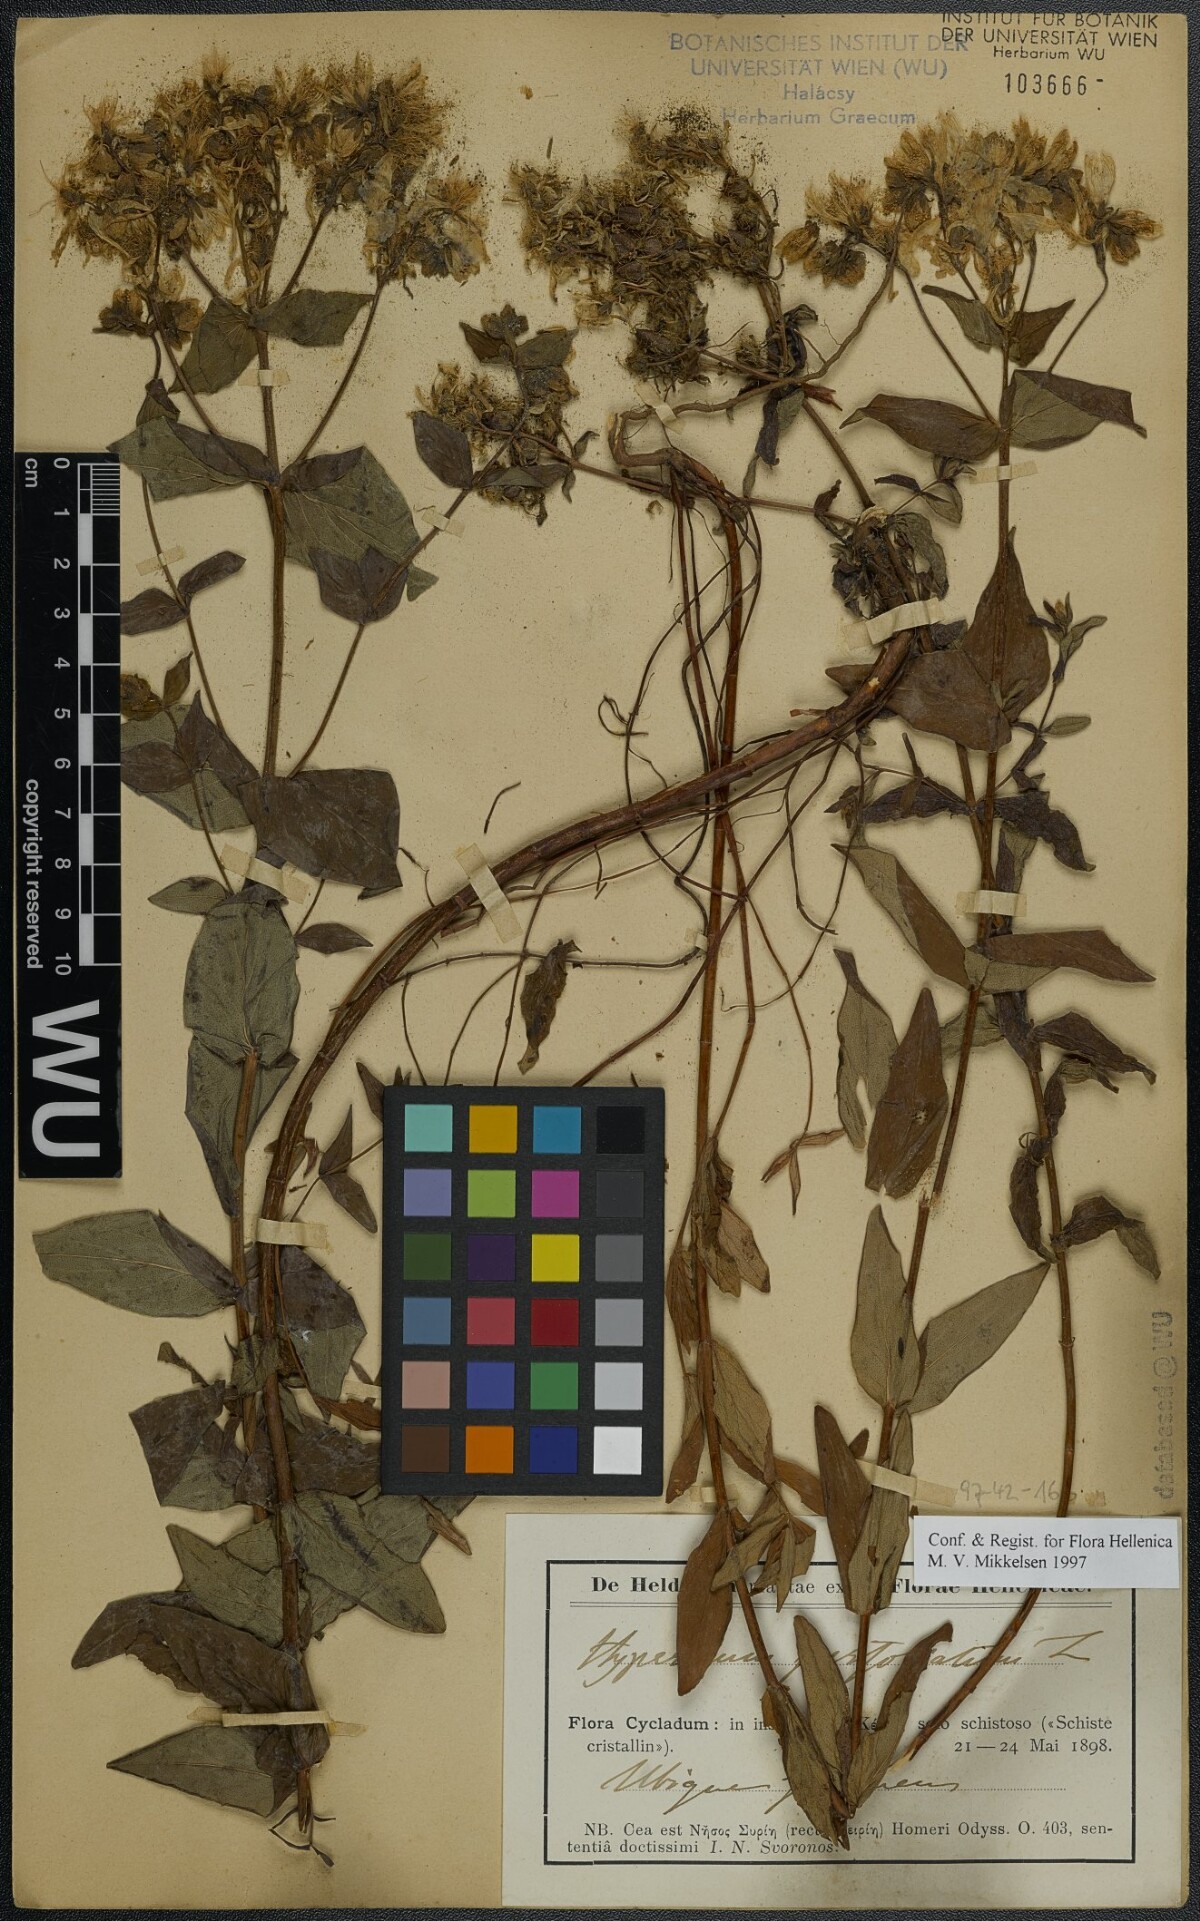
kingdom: Plantae
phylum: Tracheophyta
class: Magnoliopsida
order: Malpighiales
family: Hypericaceae
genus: Hypericum
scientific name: Hypericum perfoliatum
